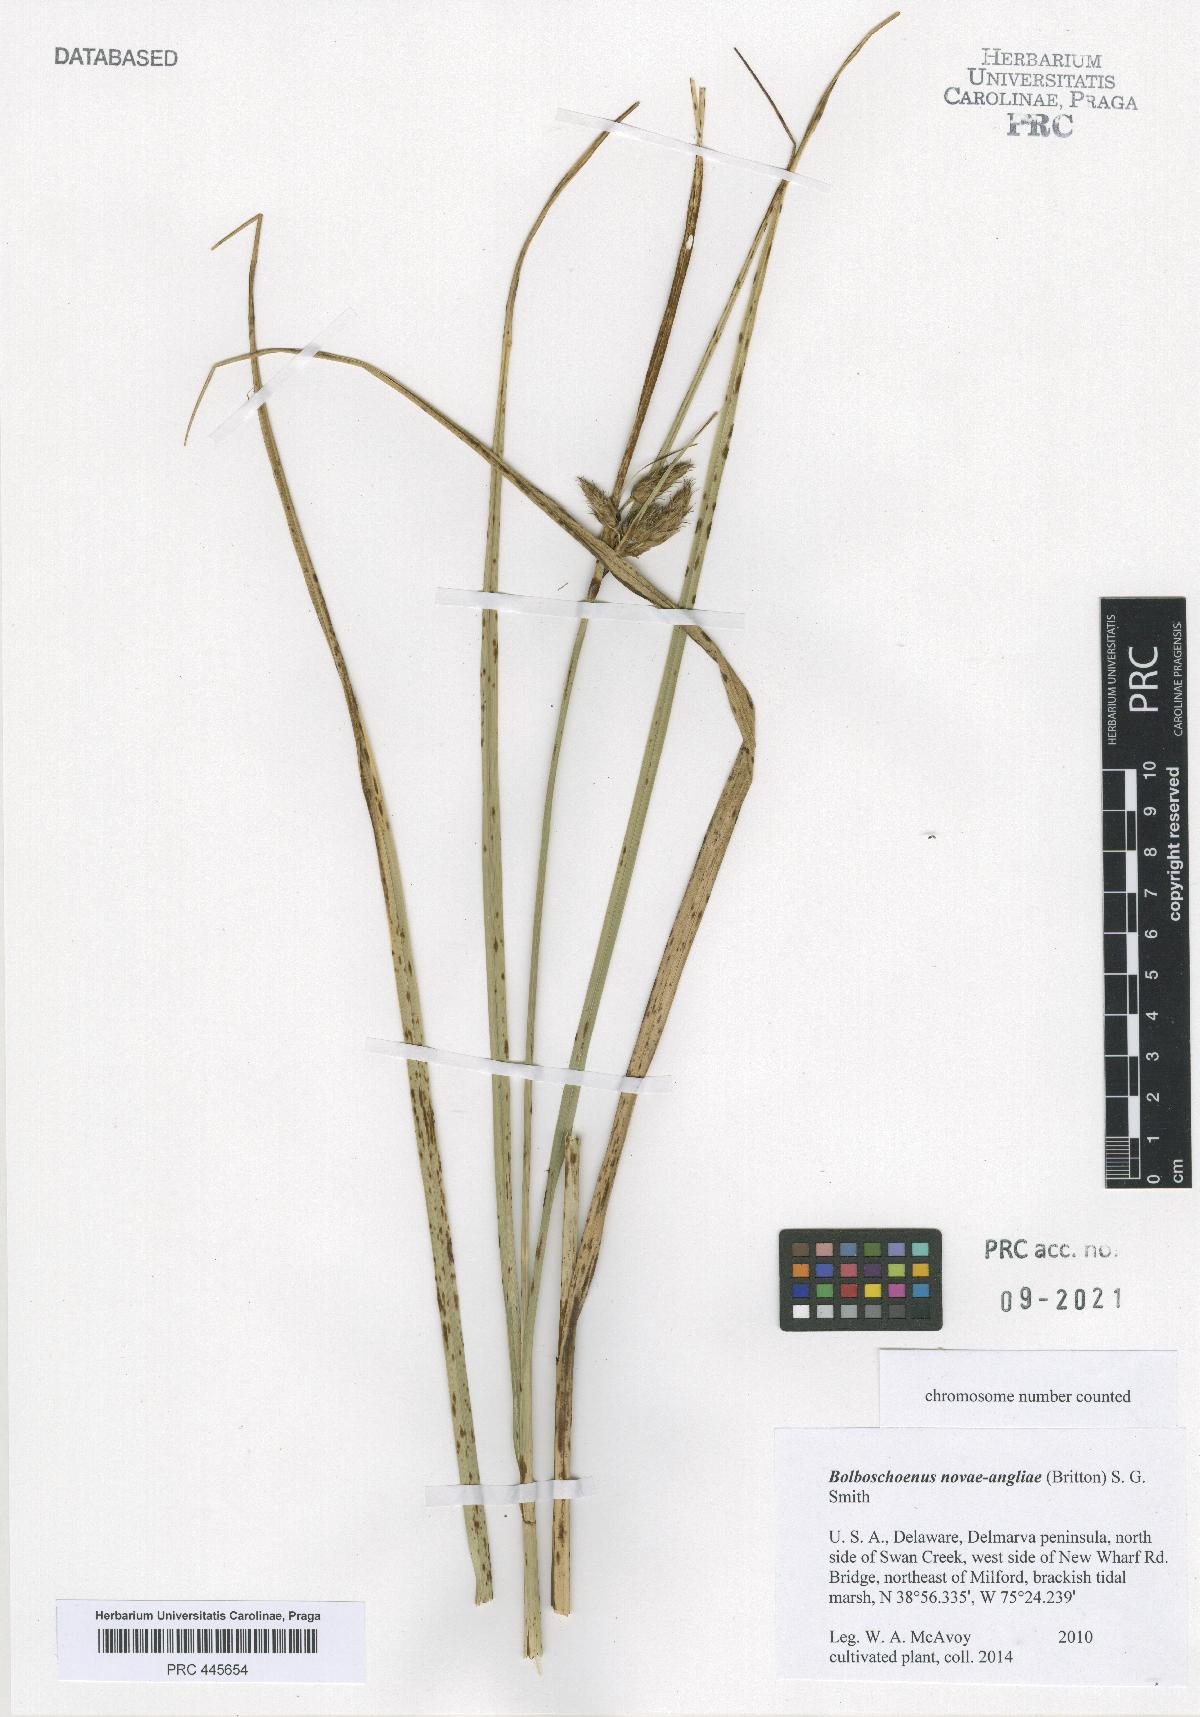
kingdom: Plantae
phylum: Tracheophyta
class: Liliopsida
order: Poales
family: Cyperaceae
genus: Bolboschoenus
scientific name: Bolboschoenus novae-angliae
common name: New england bulrush
